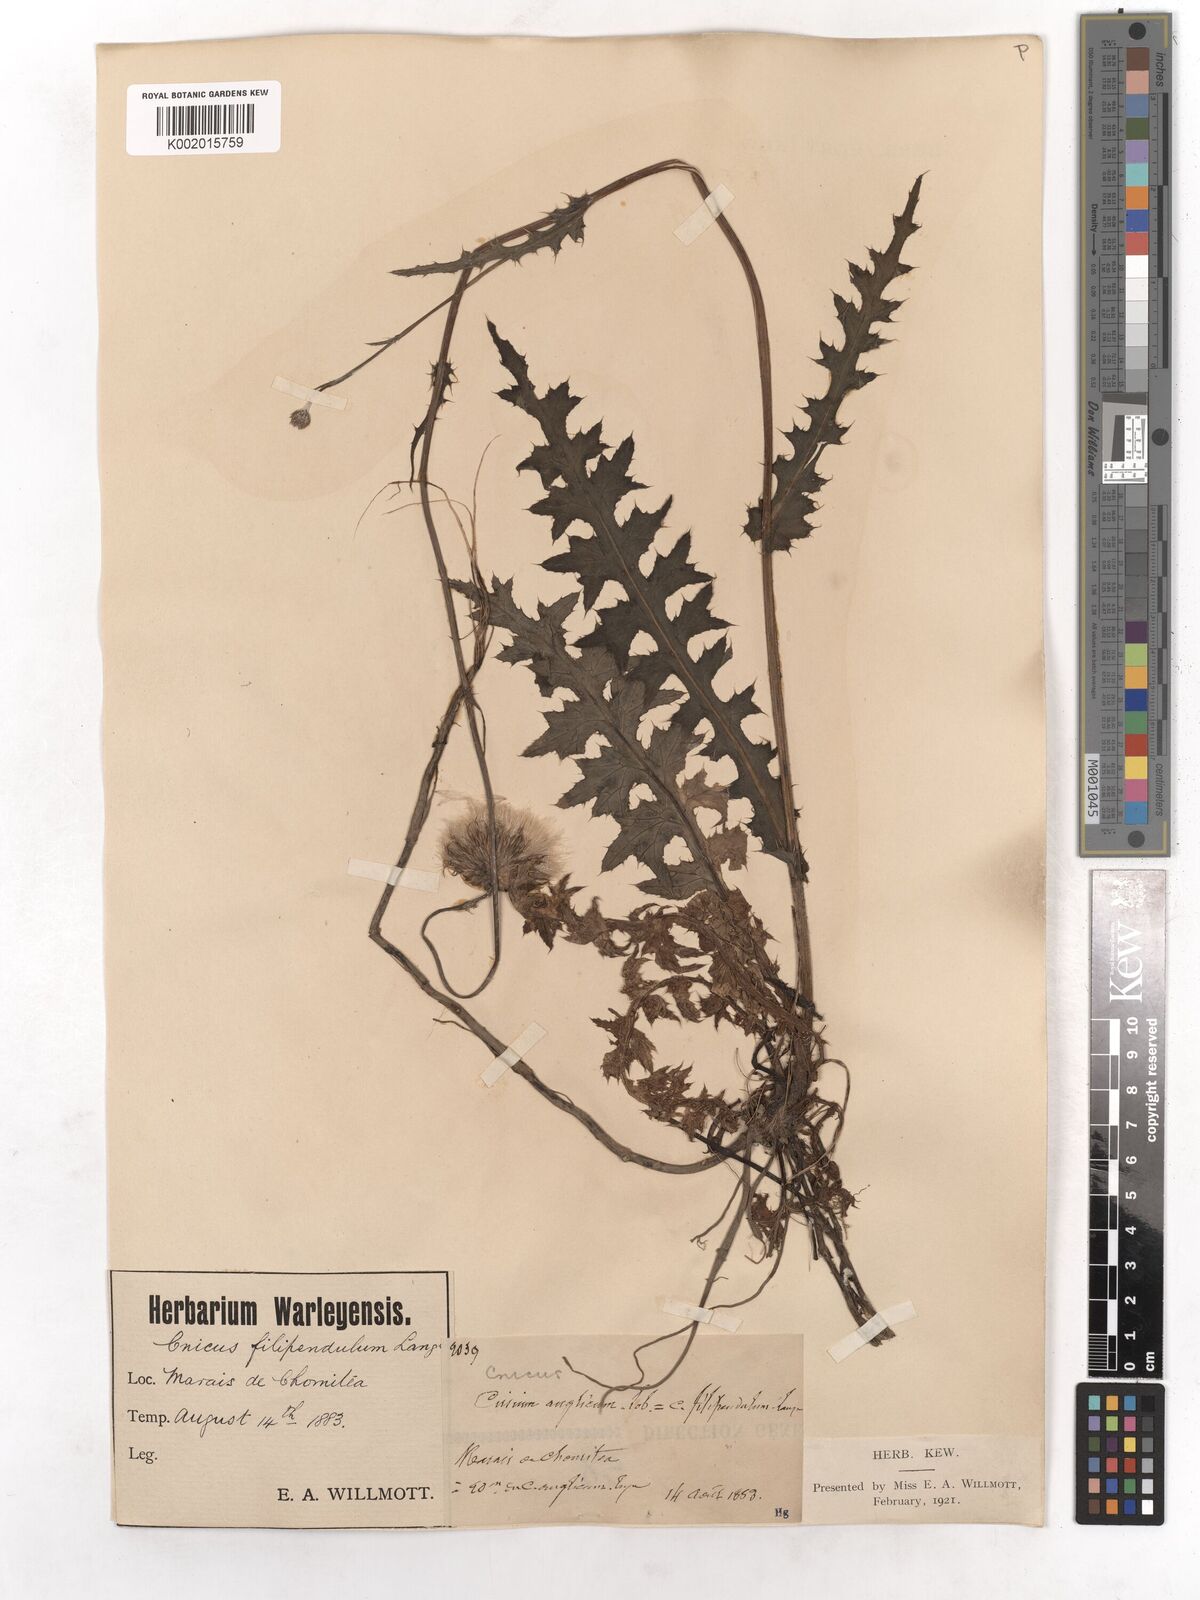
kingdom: Plantae
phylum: Tracheophyta
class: Magnoliopsida
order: Asterales
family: Asteraceae
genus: Cirsium
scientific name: Cirsium filipendulum
